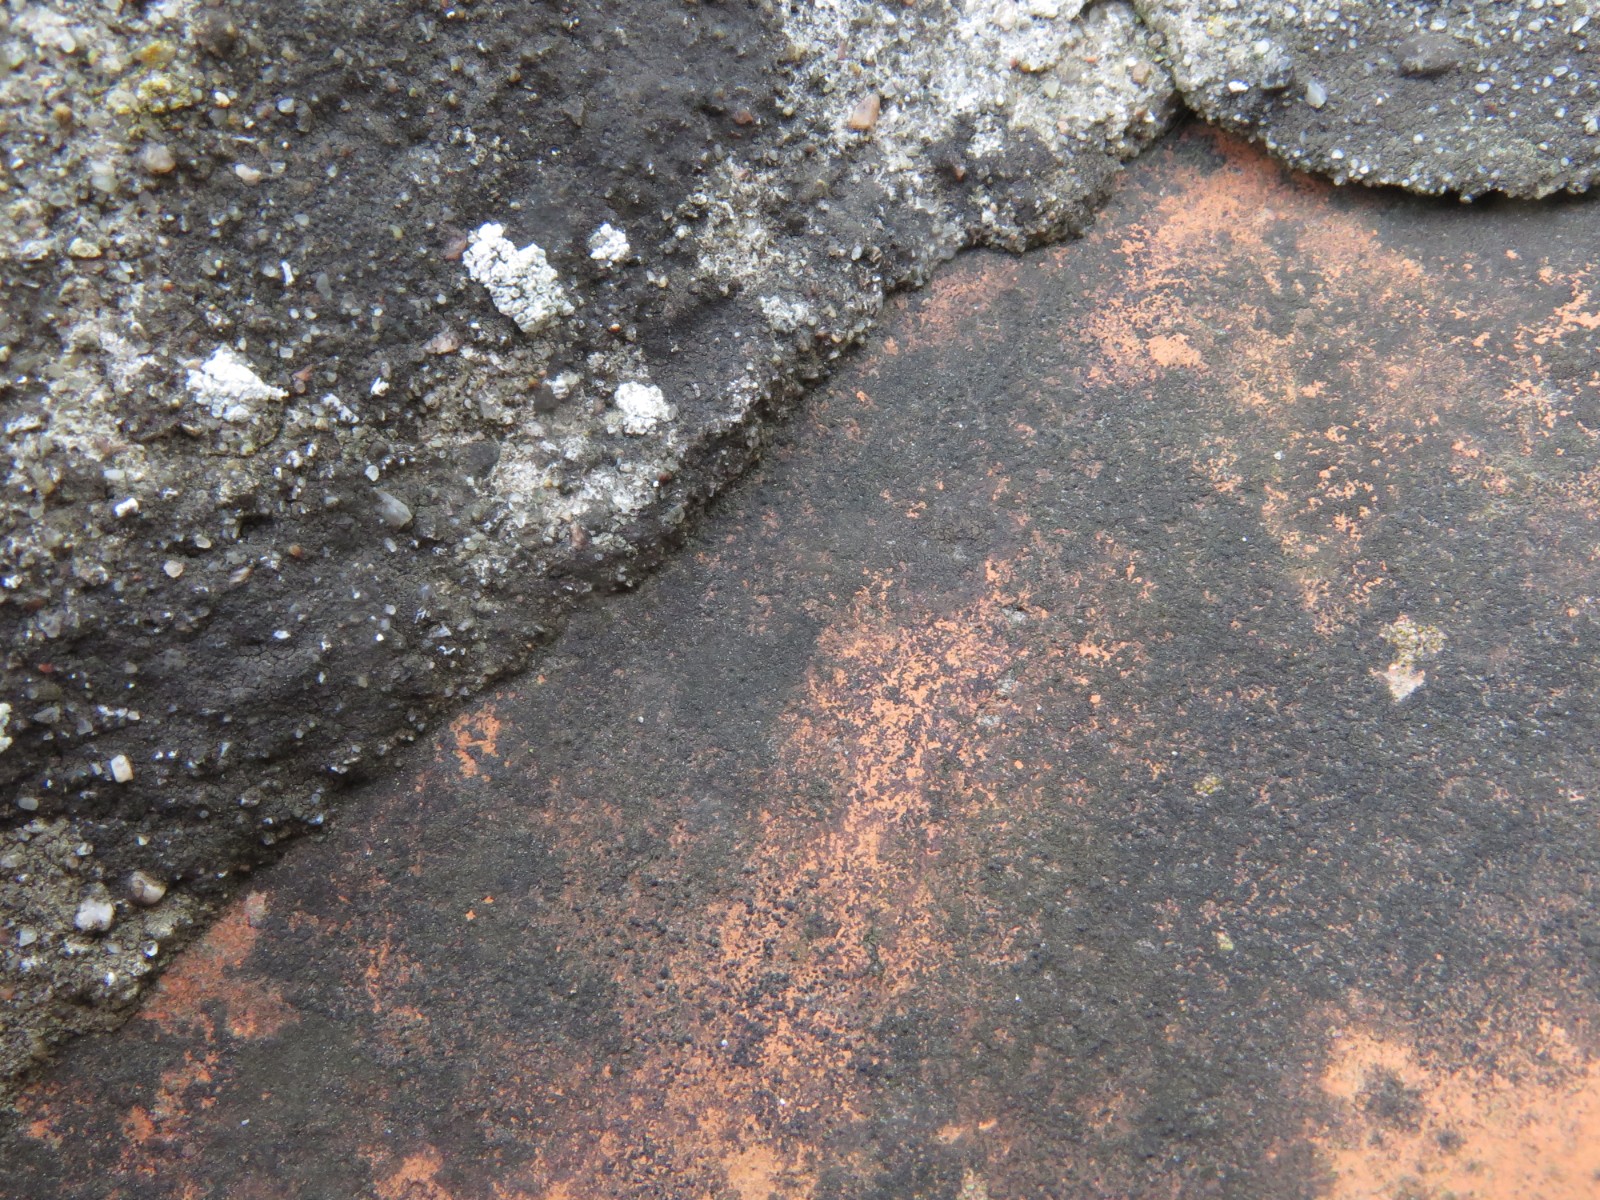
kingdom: Fungi
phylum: Ascomycota
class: Eurotiomycetes
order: Verrucariales
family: Verrucariaceae
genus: Verrucaria
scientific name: Verrucaria nigrescens
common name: sortbrun vortelav
